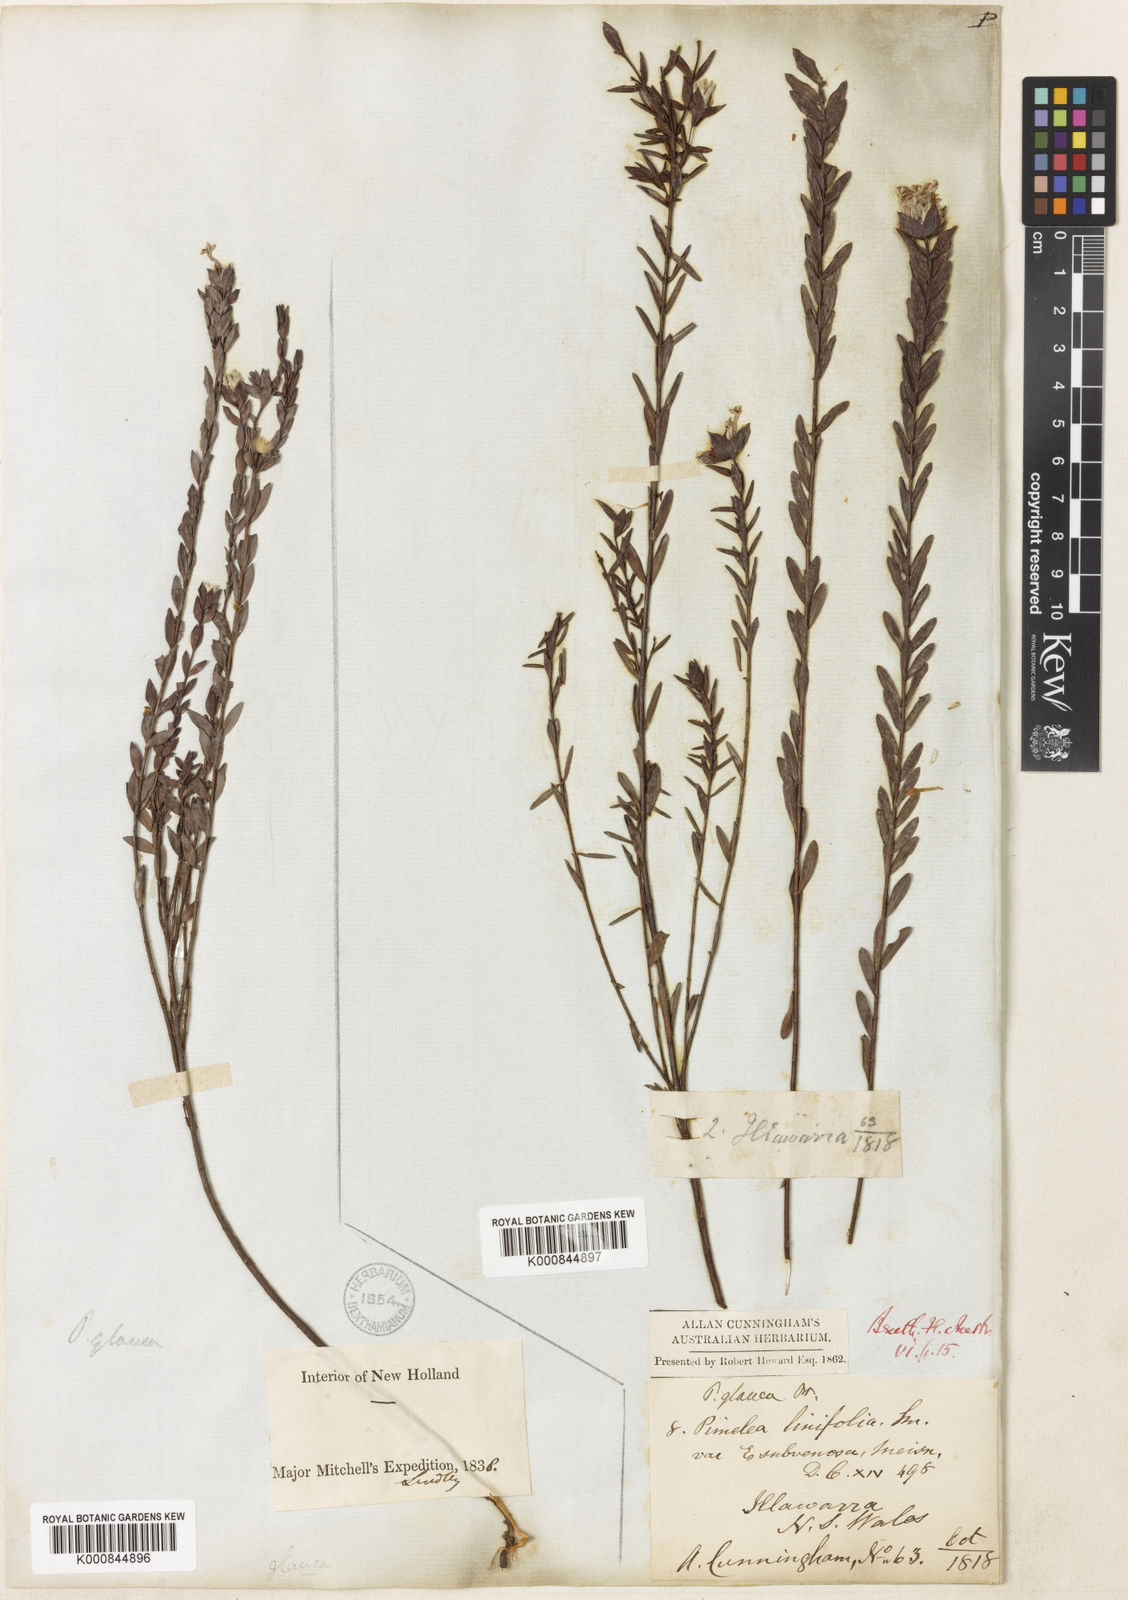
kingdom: Plantae
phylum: Tracheophyta
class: Magnoliopsida
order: Malvales
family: Thymelaeaceae
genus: Pimelea
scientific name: Pimelea glauca
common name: Smooth riceflower
